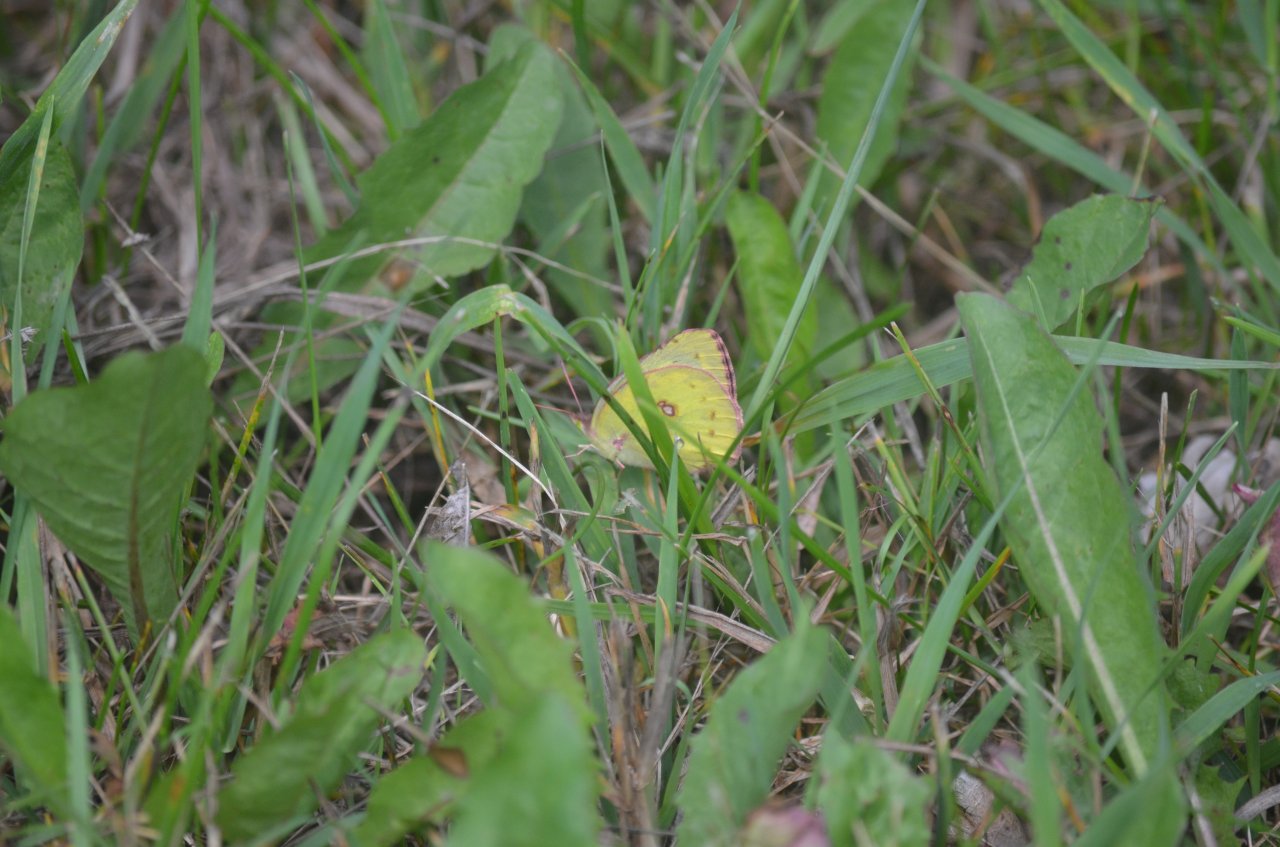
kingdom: Animalia
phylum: Arthropoda
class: Insecta
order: Lepidoptera
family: Pieridae
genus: Colias
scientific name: Colias philodice
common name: Clouded Sulphur
